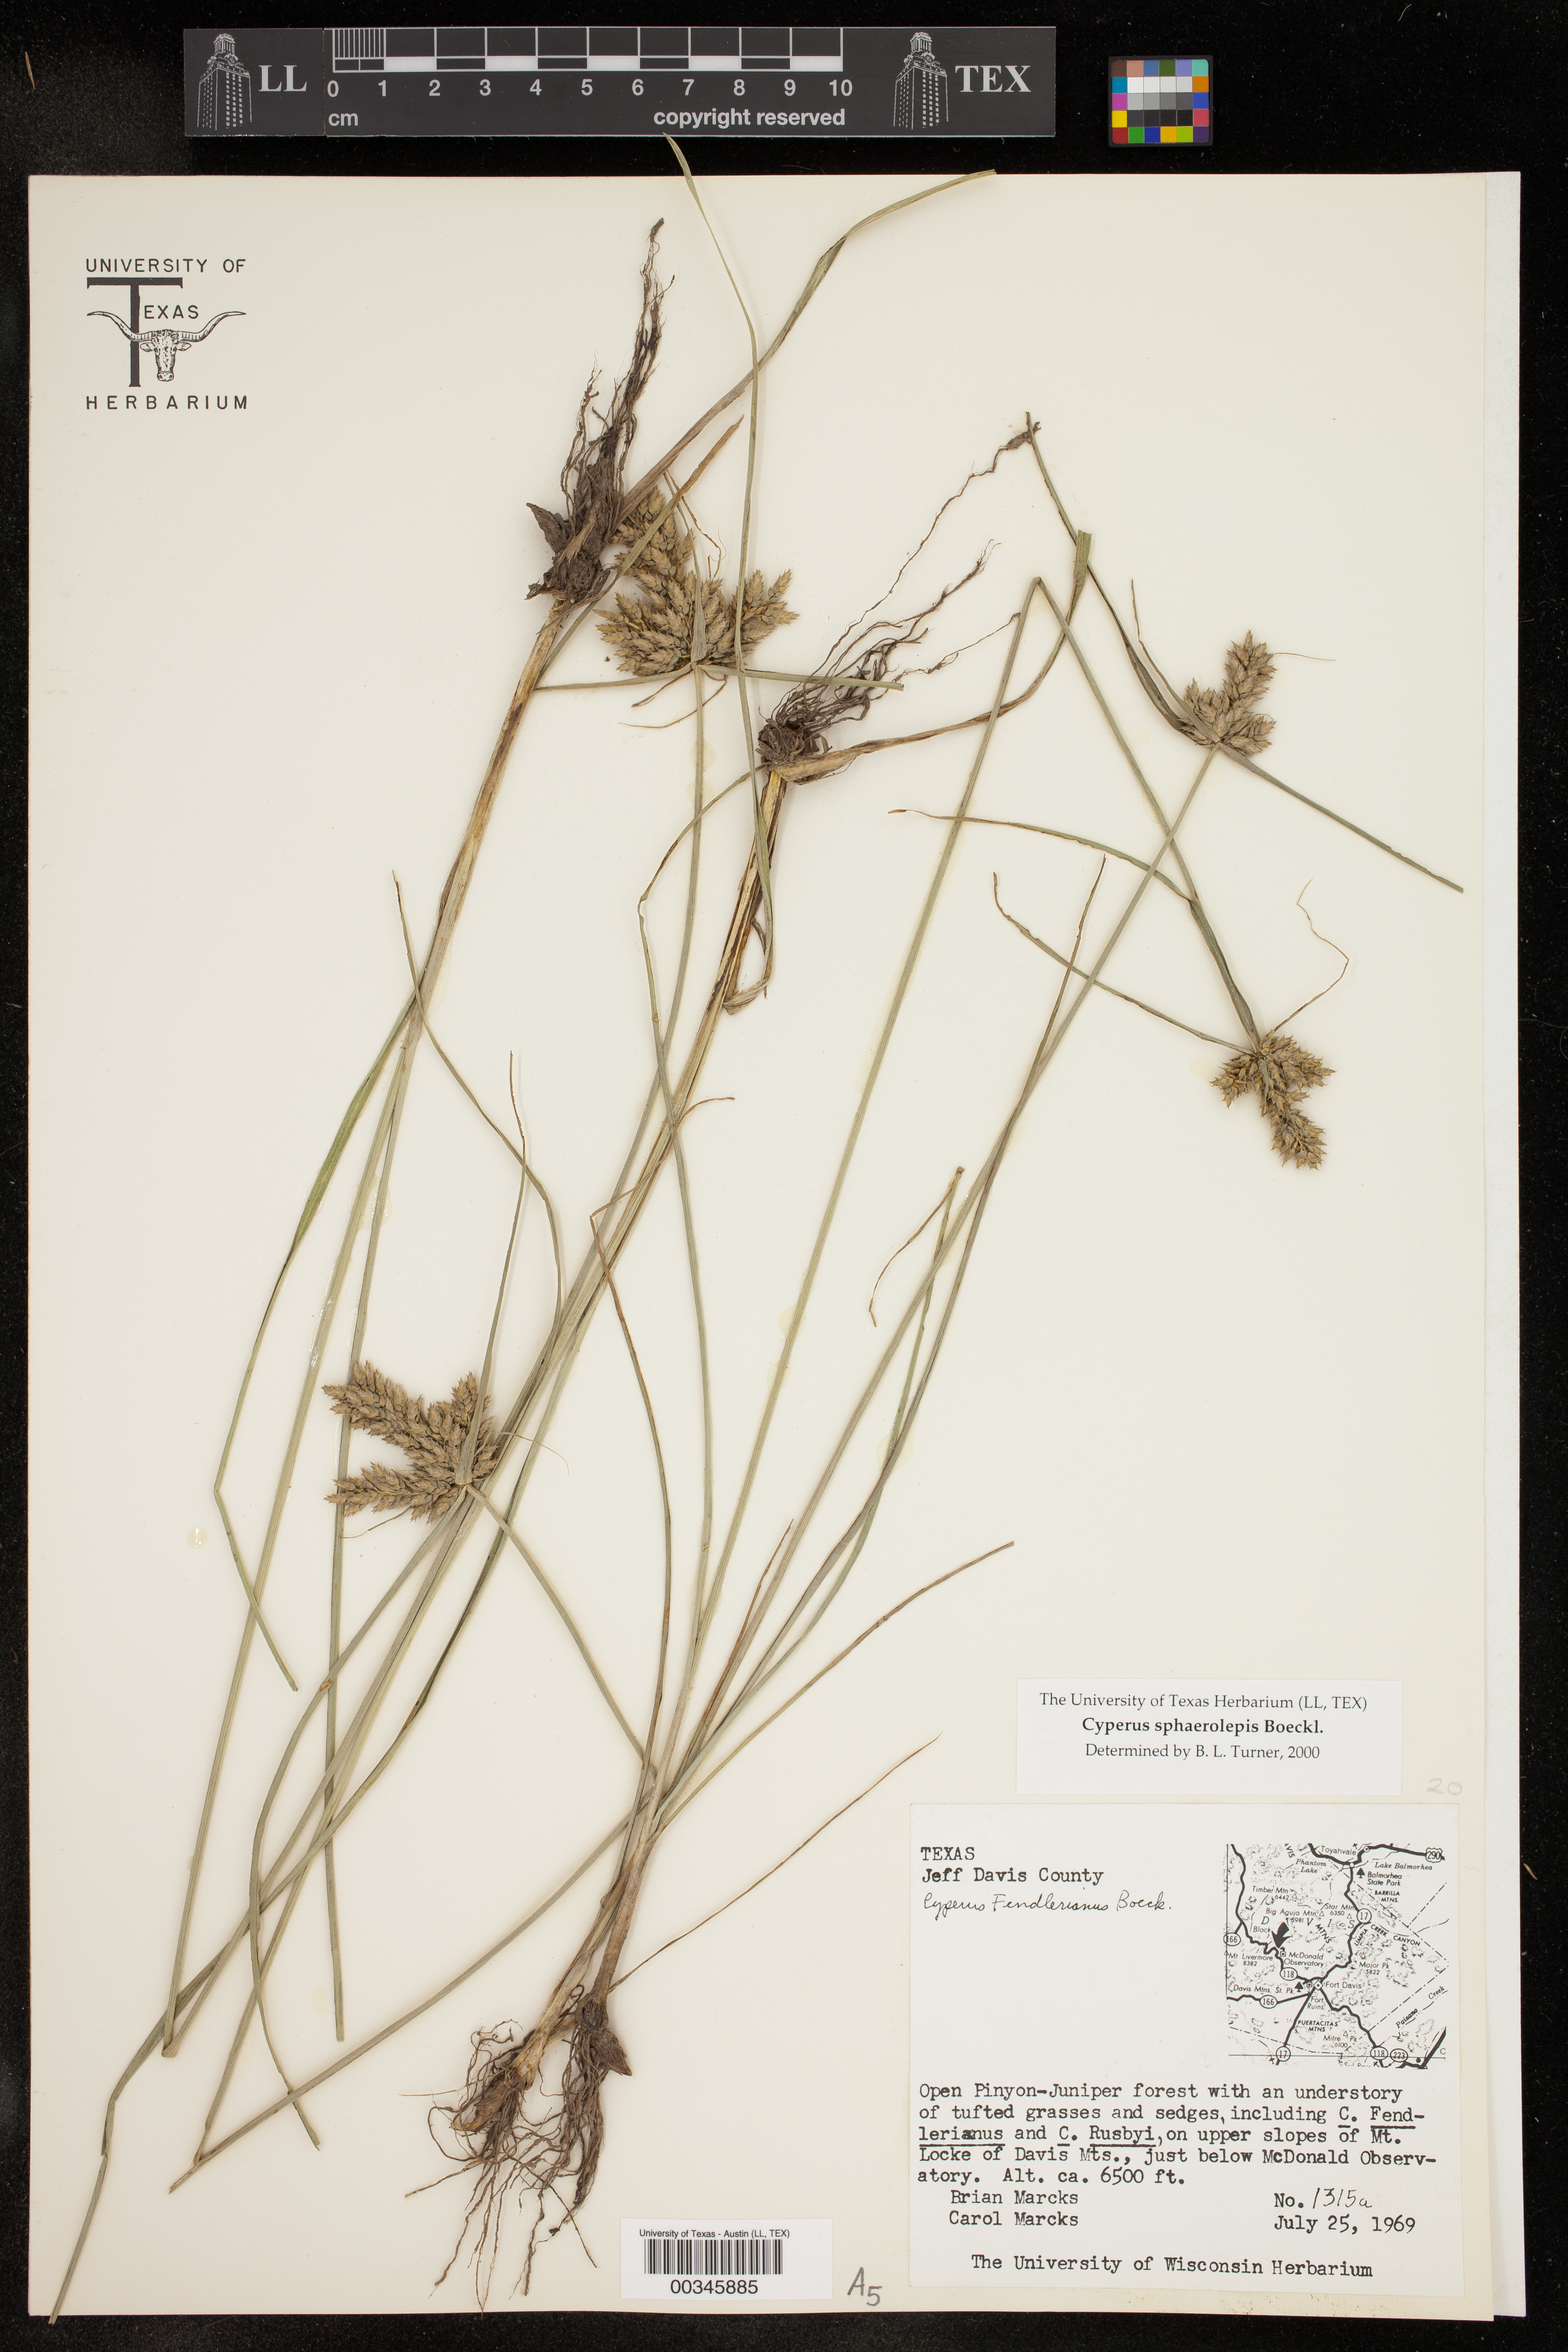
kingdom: Plantae
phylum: Tracheophyta
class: Liliopsida
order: Poales
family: Cyperaceae
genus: Cyperus
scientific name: Cyperus sphaerolepis
